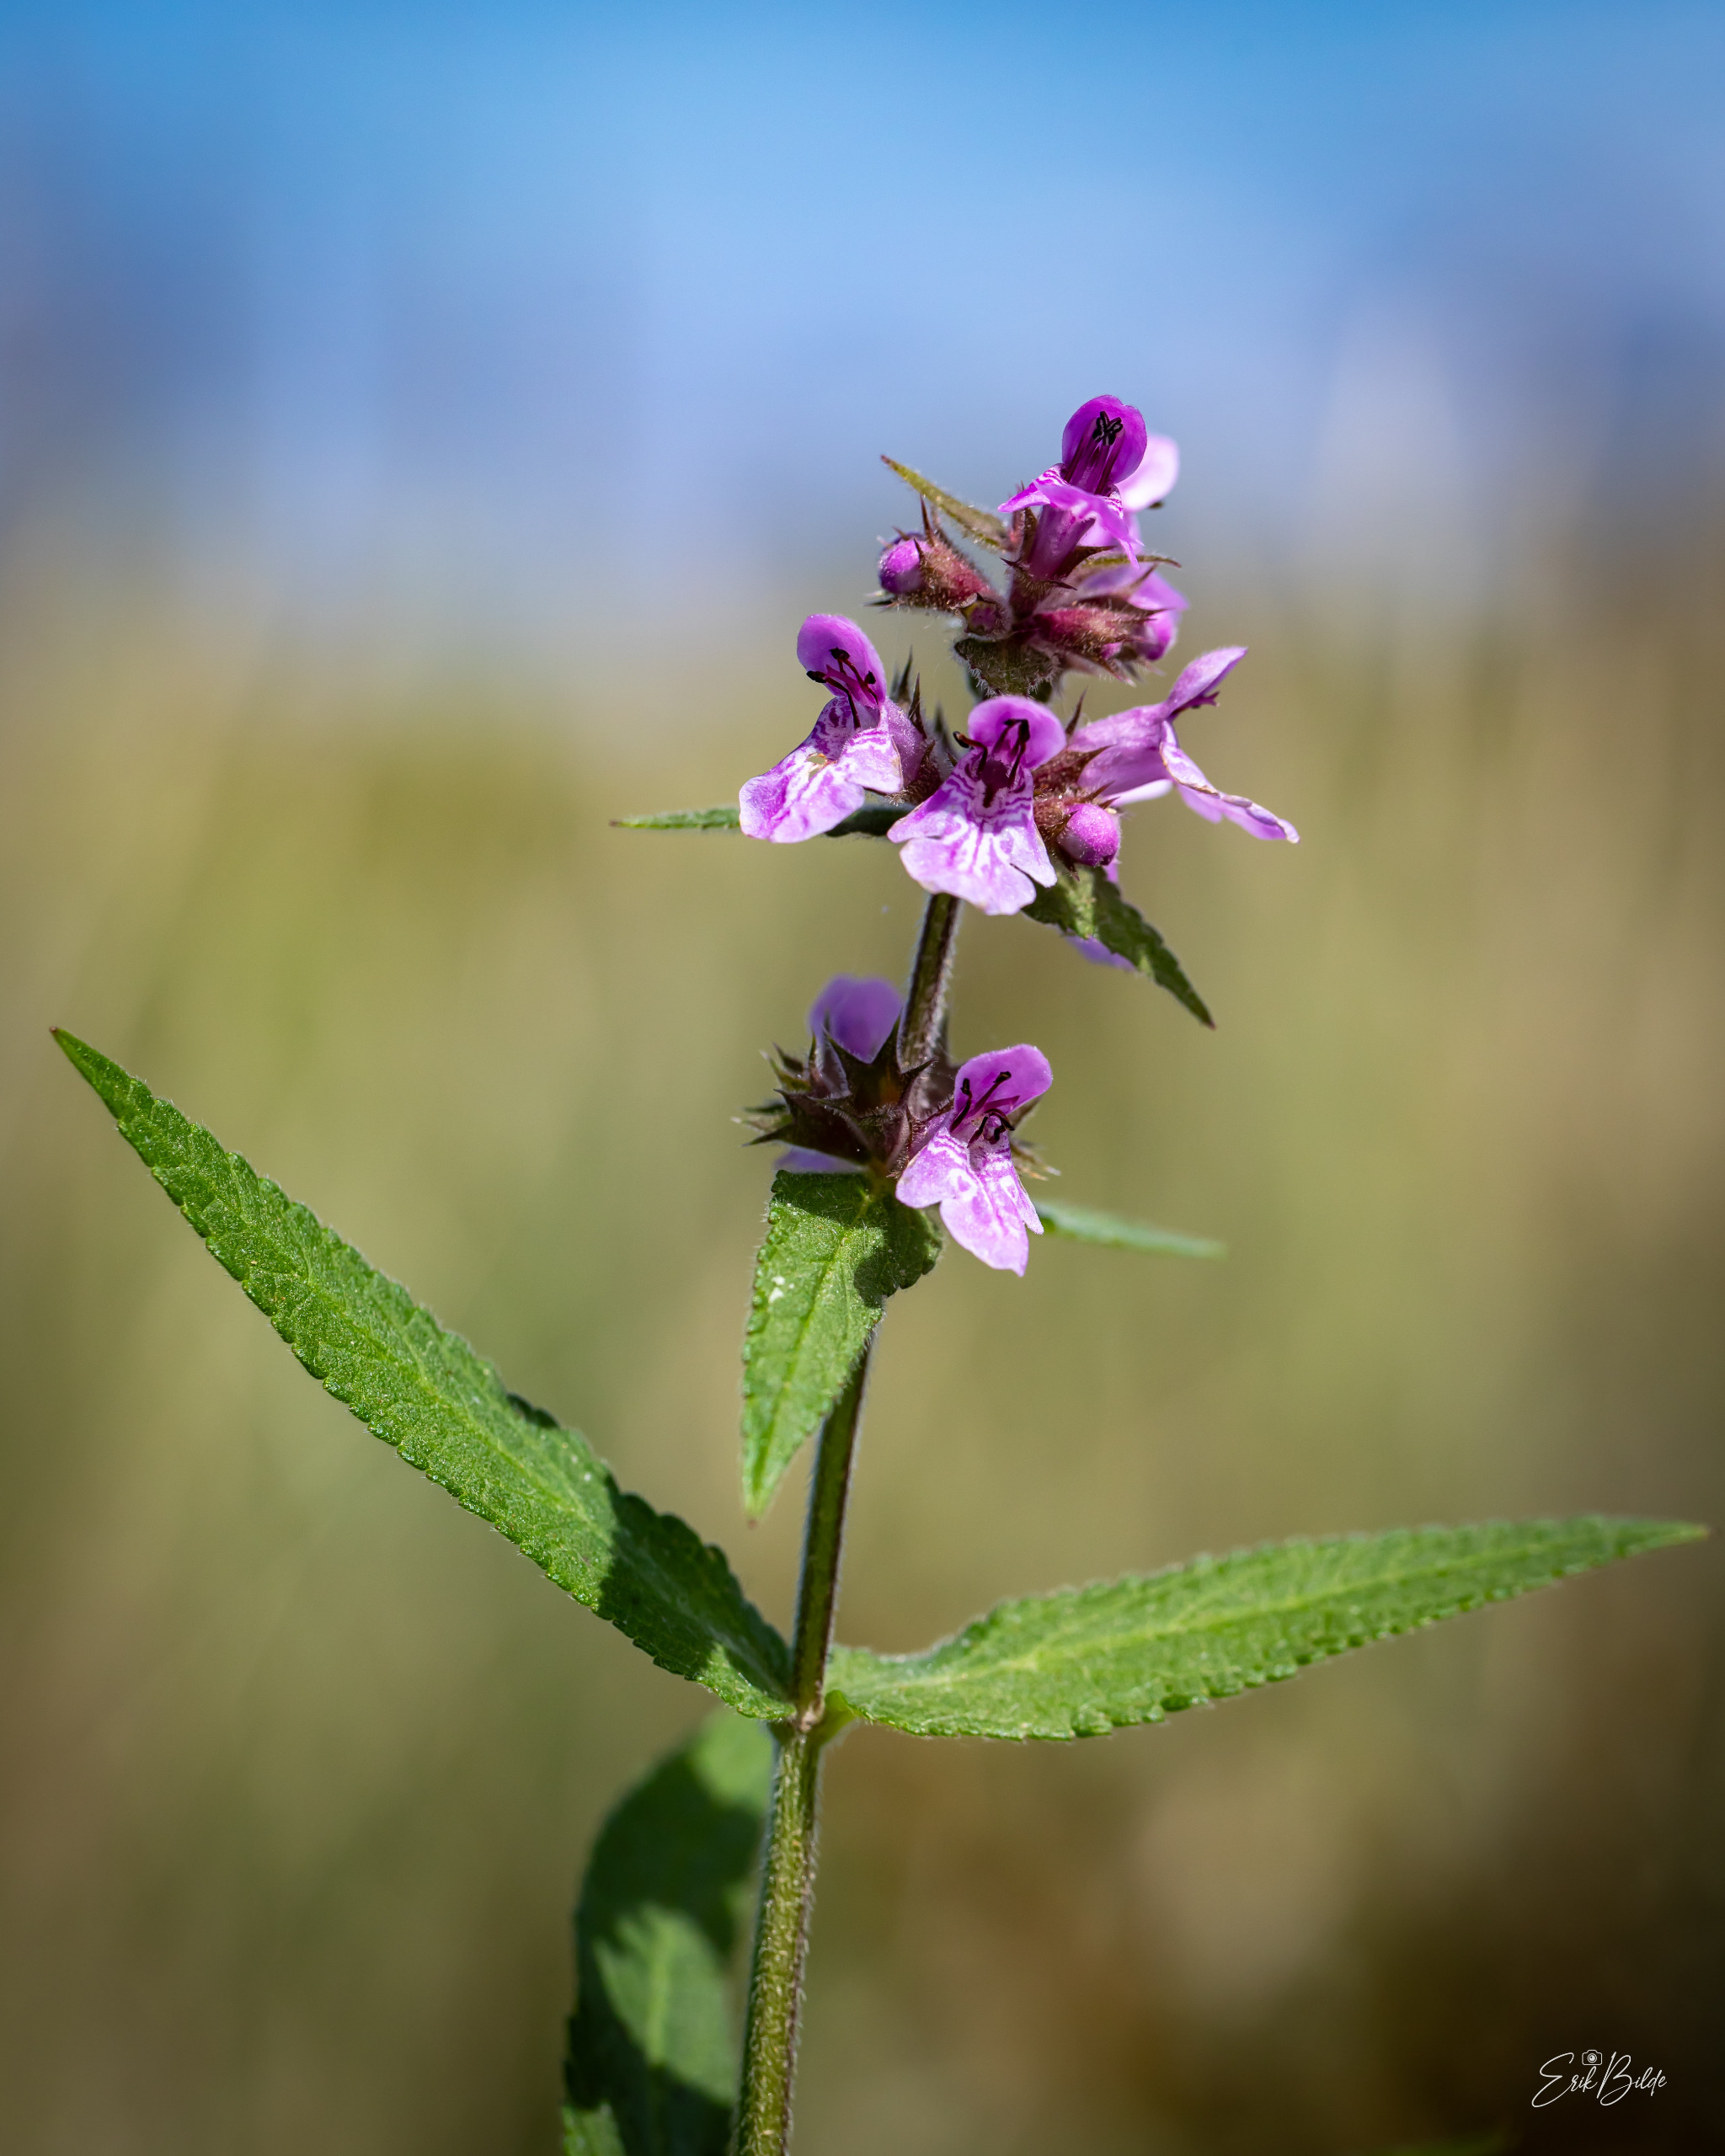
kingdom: Plantae
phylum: Tracheophyta
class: Magnoliopsida
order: Lamiales
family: Lamiaceae
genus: Stachys
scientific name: Stachys palustris
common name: Kær-galtetand
